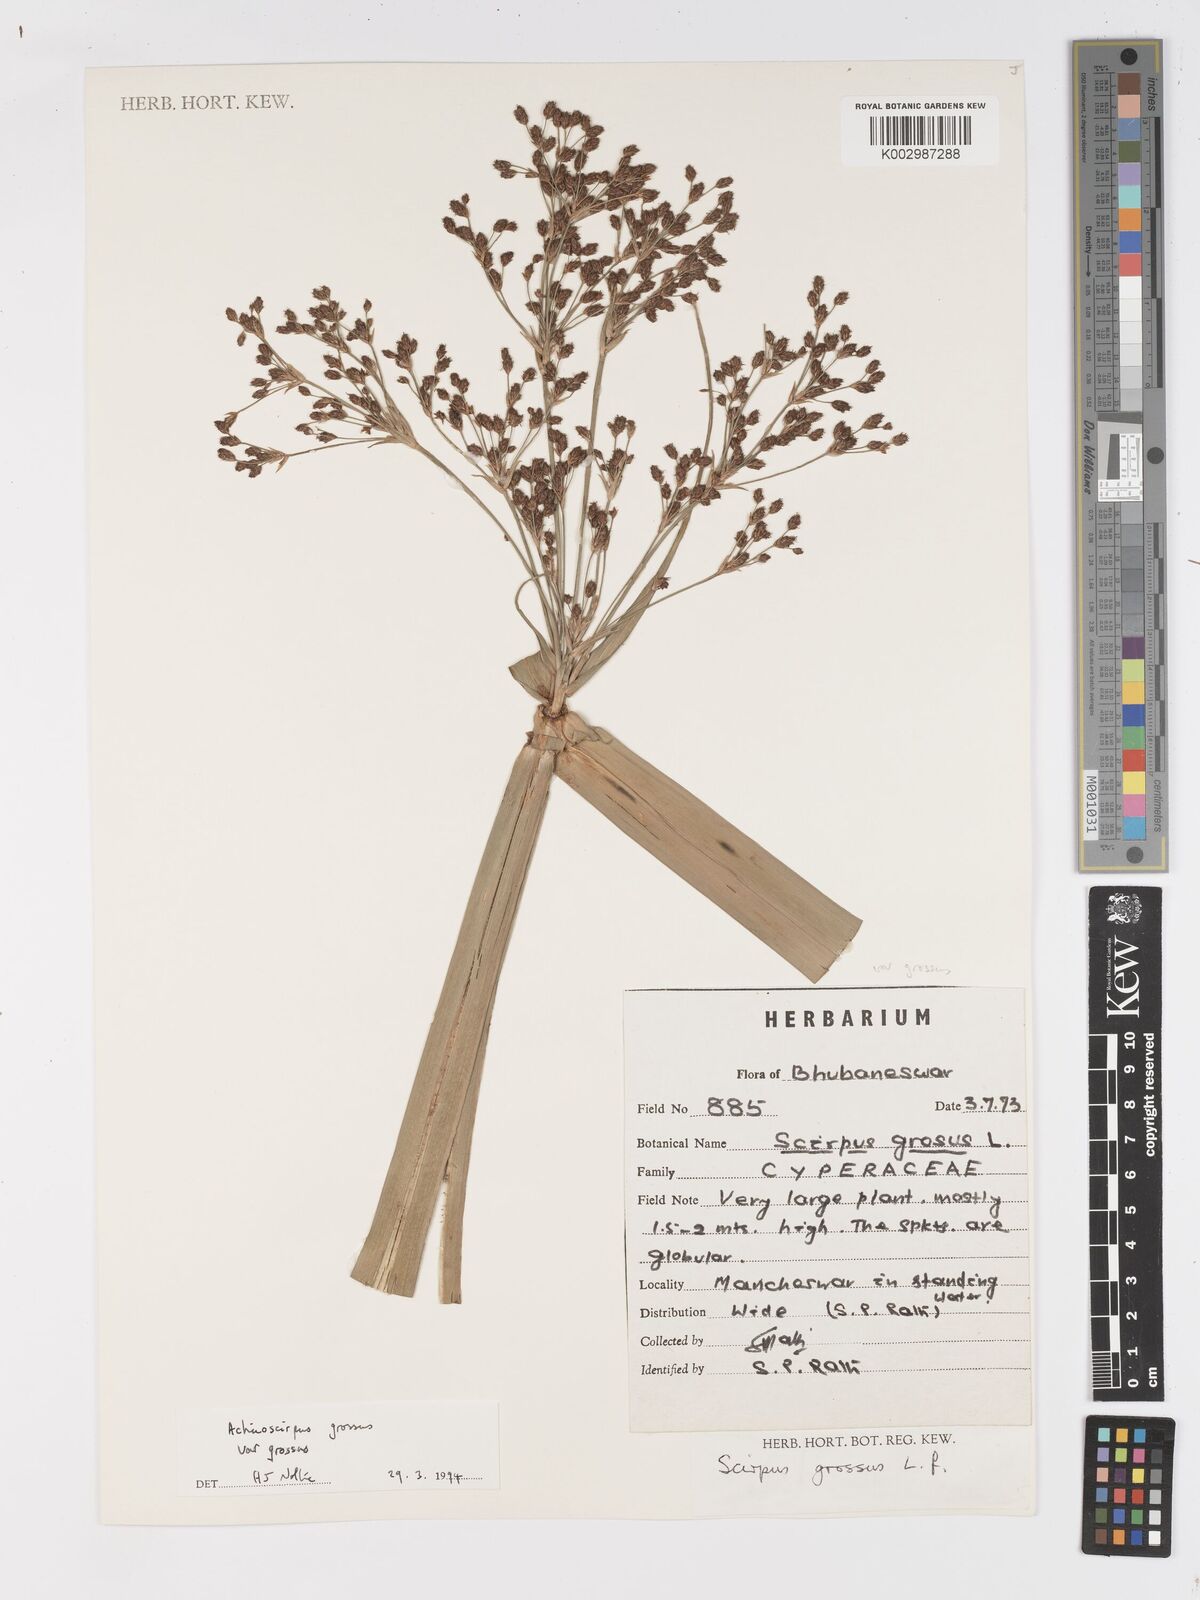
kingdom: Plantae
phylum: Tracheophyta
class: Liliopsida
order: Poales
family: Cyperaceae
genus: Actinoscirpus
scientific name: Actinoscirpus grossus
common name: Giant bur rush
